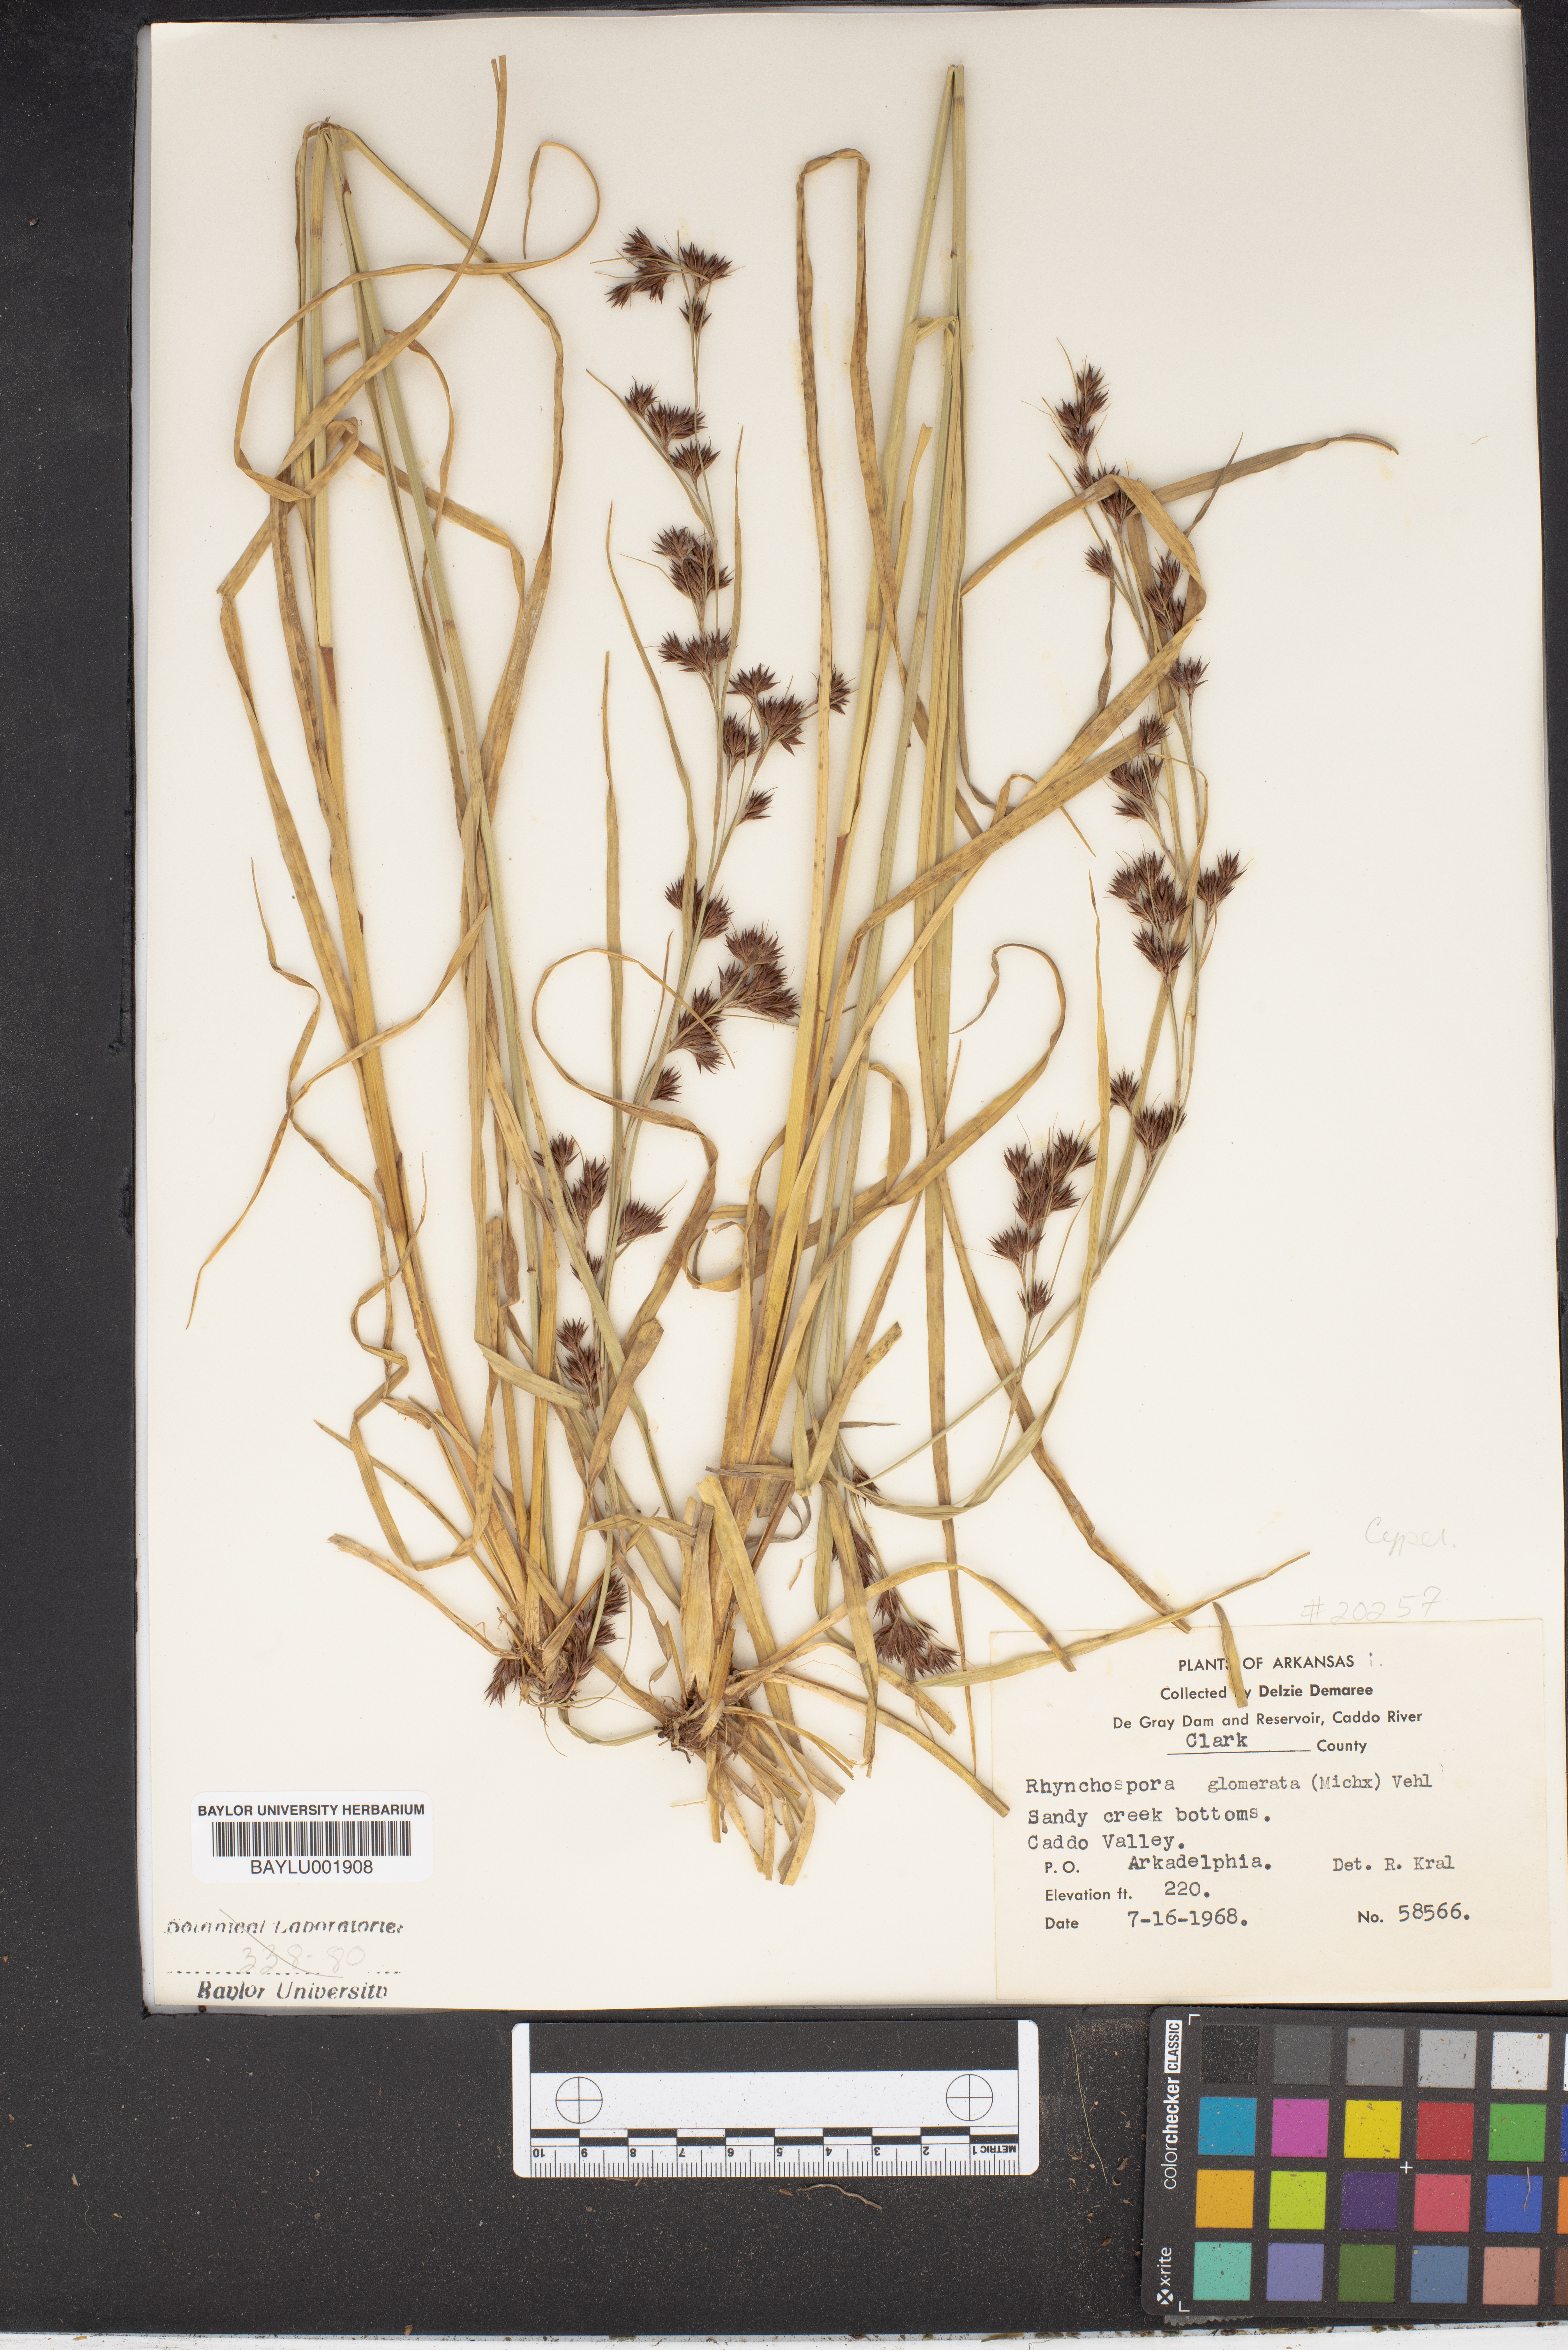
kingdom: Plantae
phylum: Tracheophyta
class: Liliopsida
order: Poales
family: Cyperaceae
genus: Rhynchospora
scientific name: Rhynchospora glomerata
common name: Cluster beak sedge
